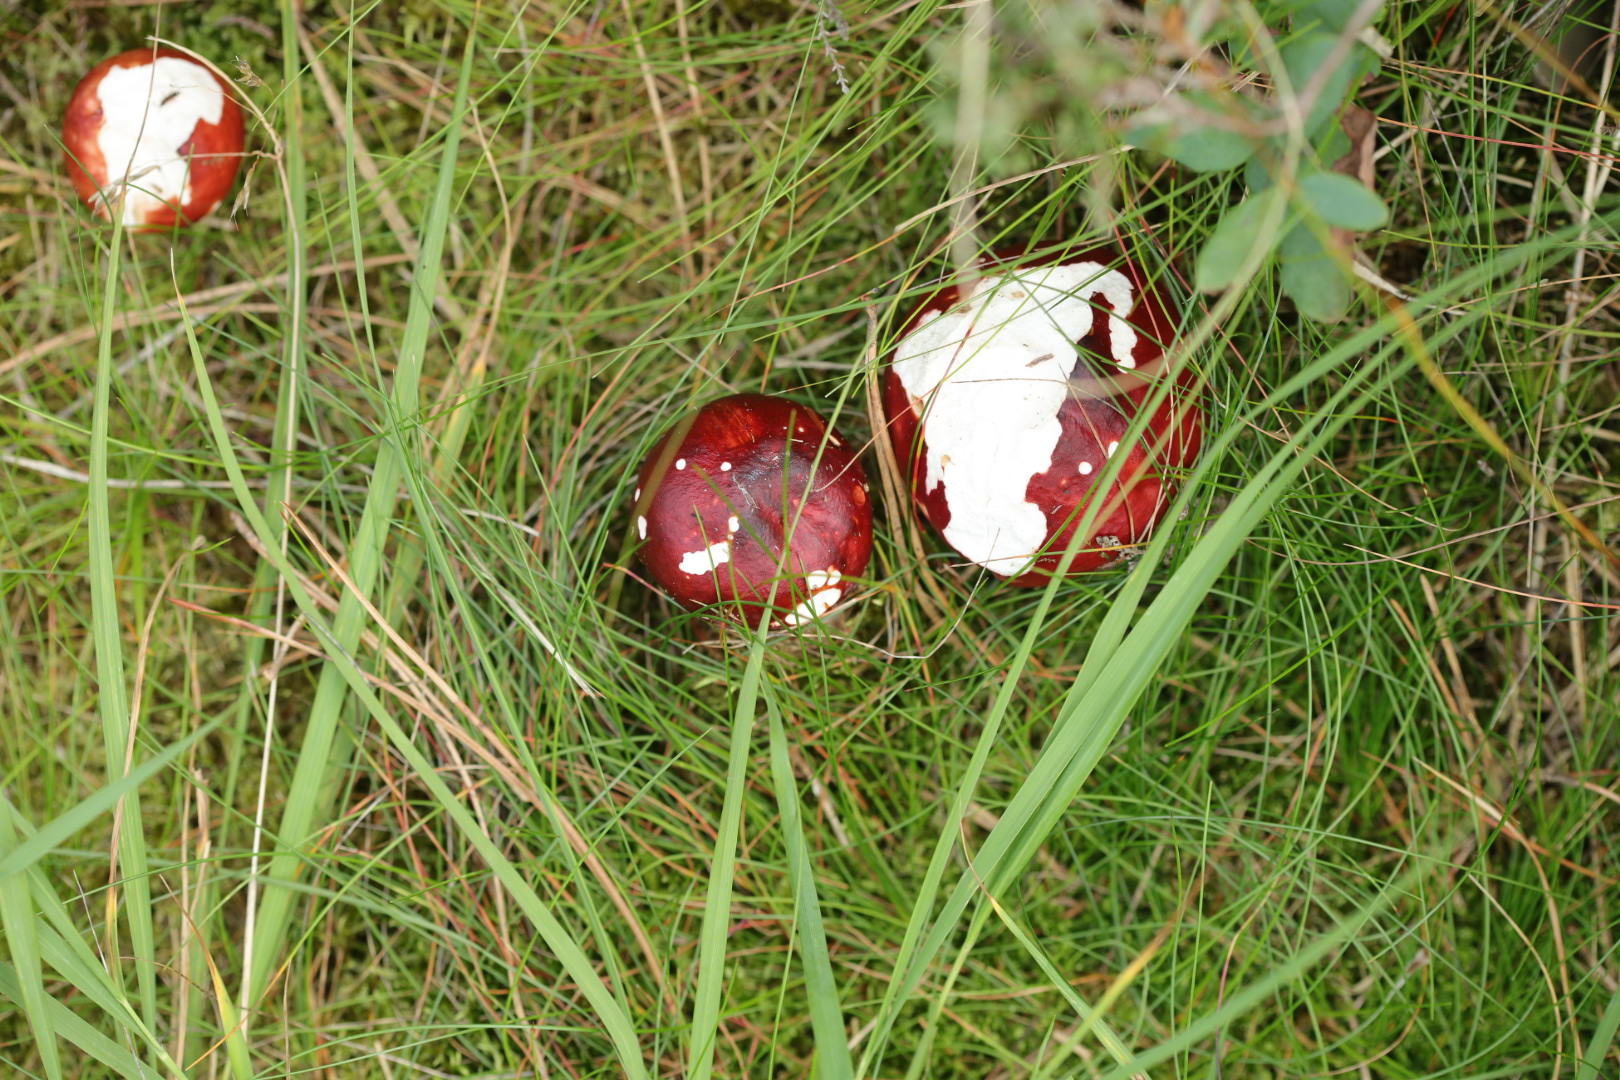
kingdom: Fungi
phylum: Basidiomycota
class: Agaricomycetes
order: Russulales
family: Russulaceae
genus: Russula
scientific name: Russula
